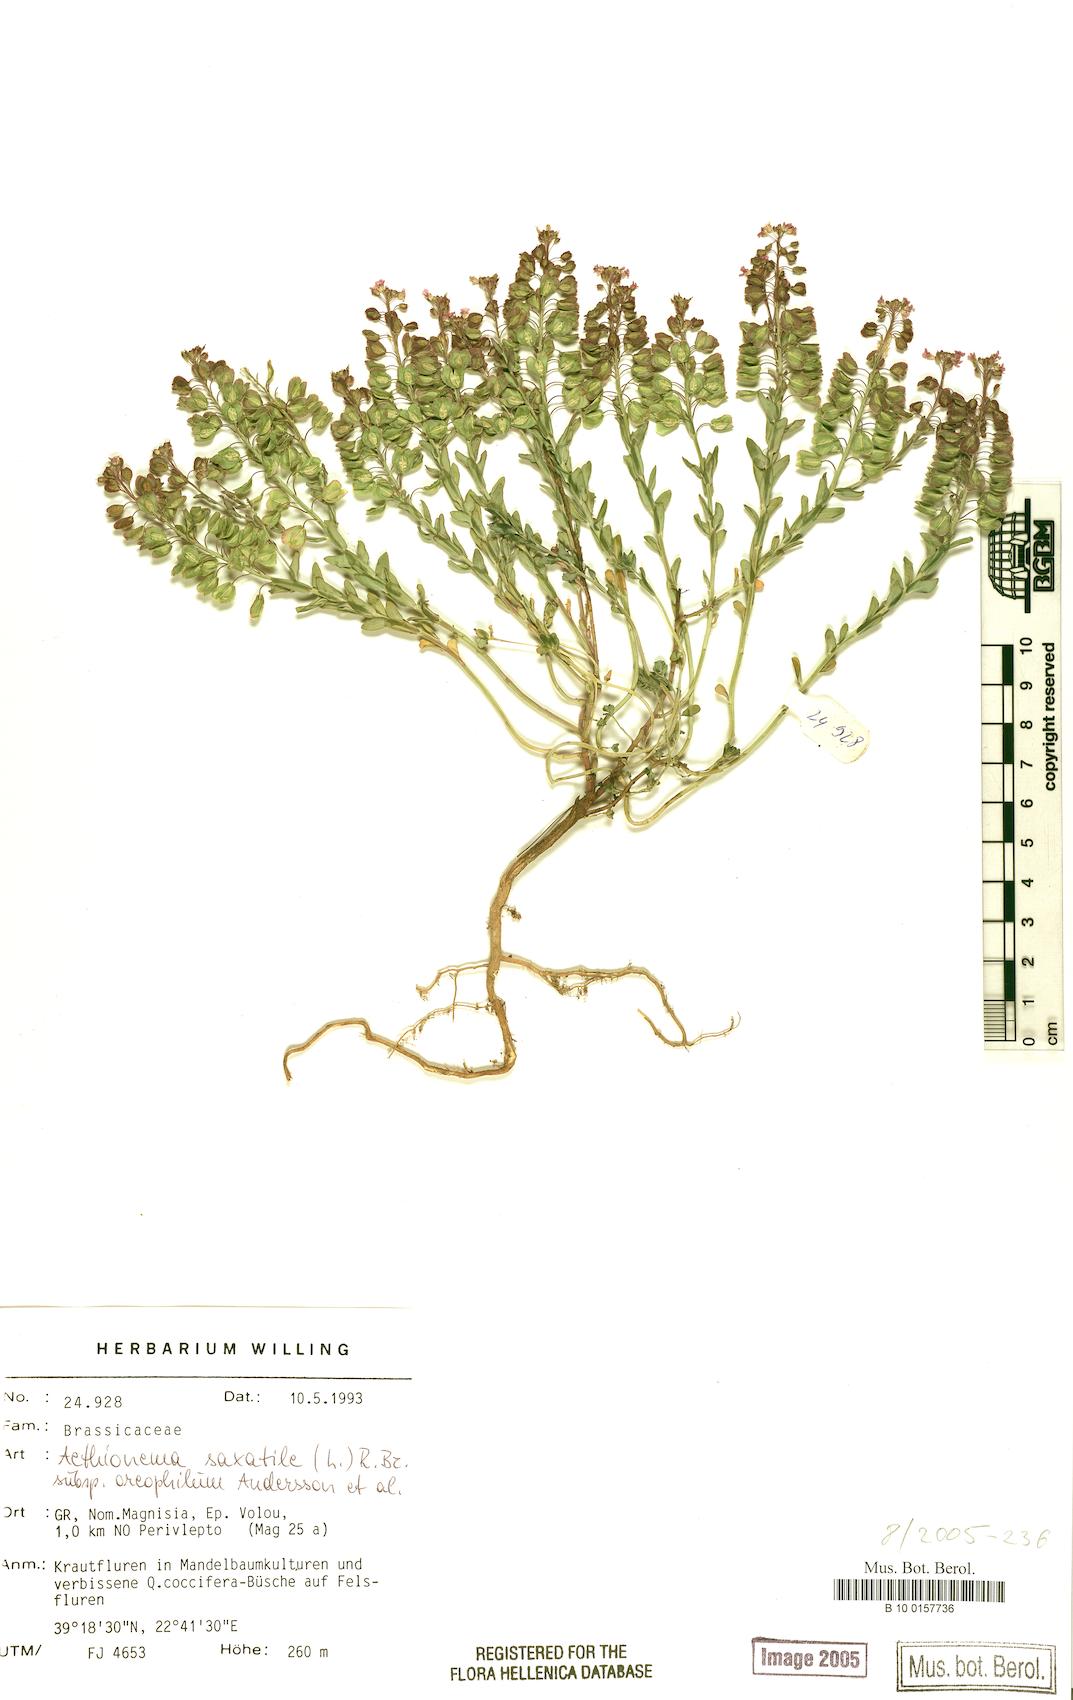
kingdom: Plantae
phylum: Tracheophyta
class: Magnoliopsida
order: Brassicales
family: Brassicaceae
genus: Aethionema
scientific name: Aethionema saxatile
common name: Burnt candytuft
